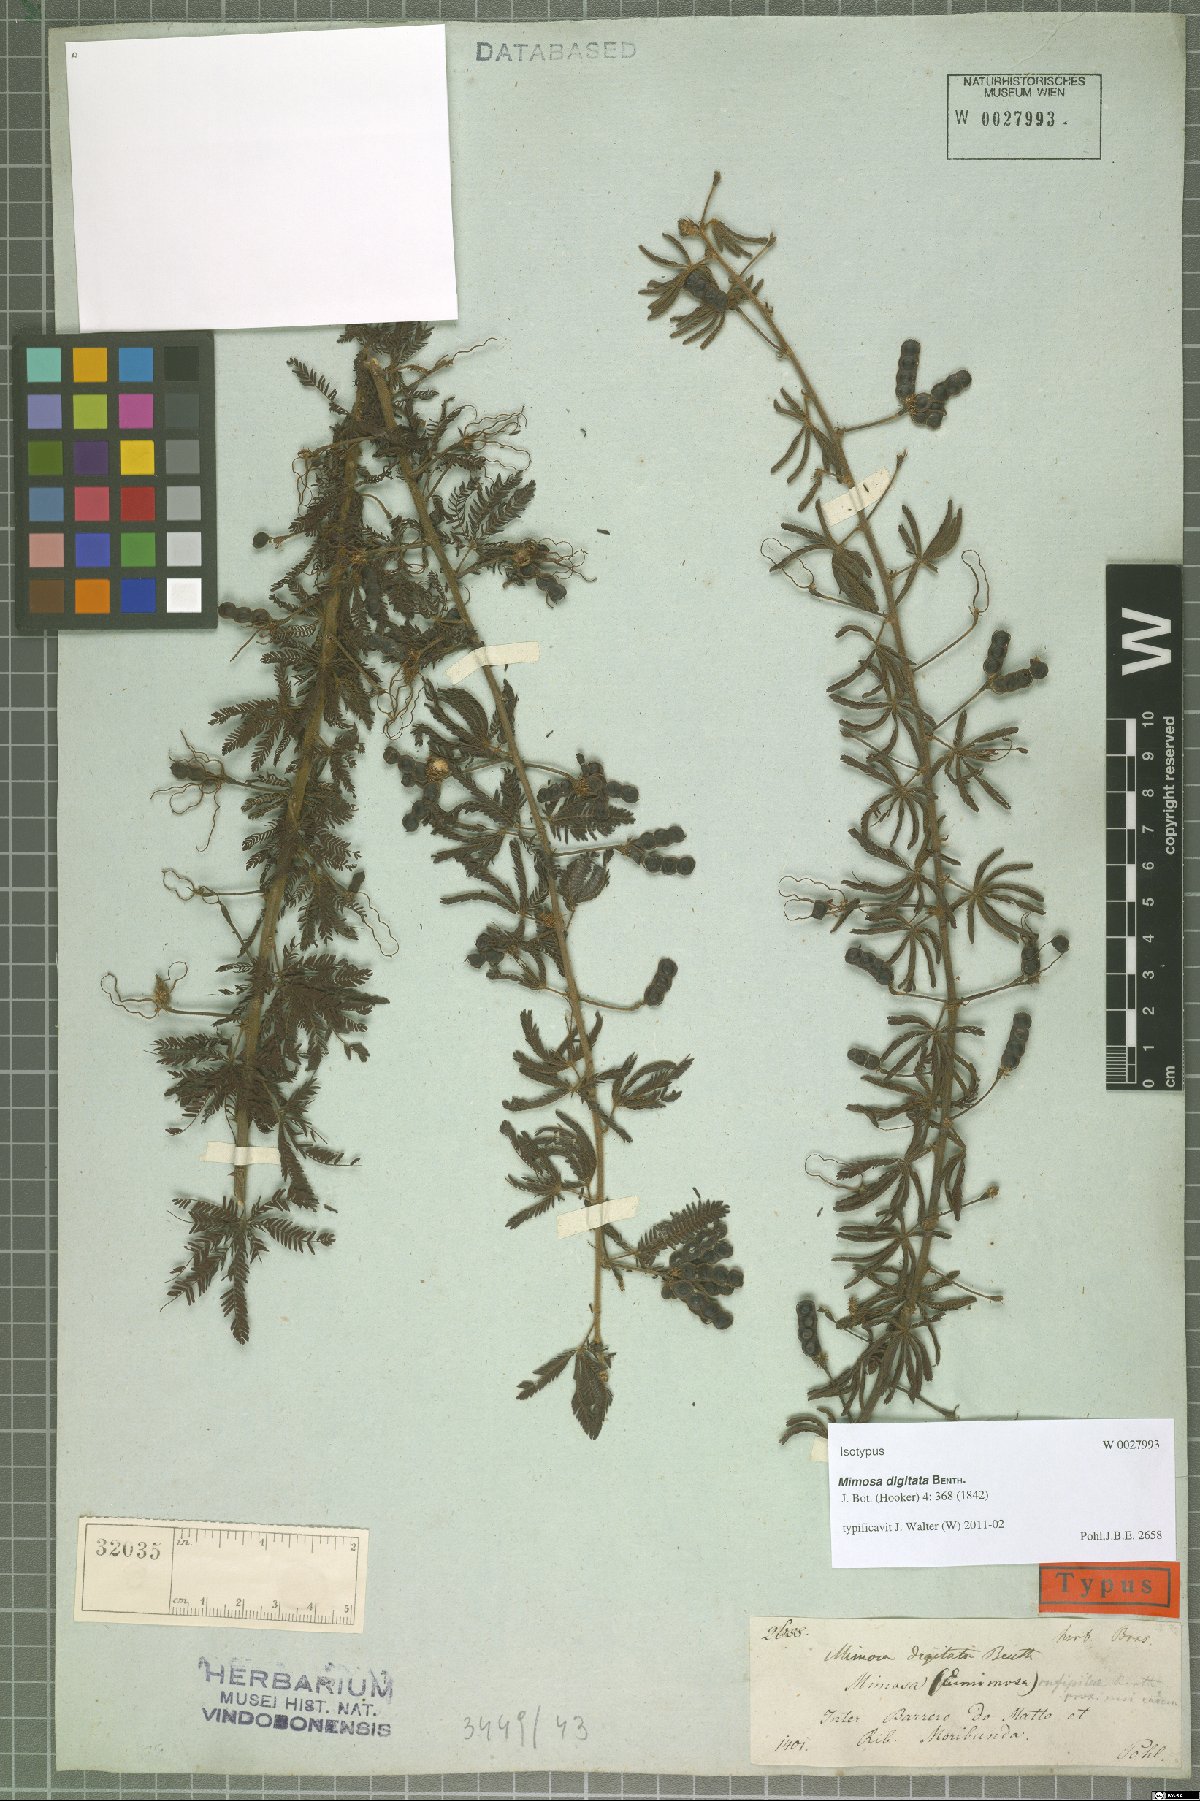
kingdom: Plantae
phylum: Tracheophyta
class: Magnoliopsida
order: Fabales
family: Fabaceae
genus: Mimosa
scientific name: Mimosa digitata
